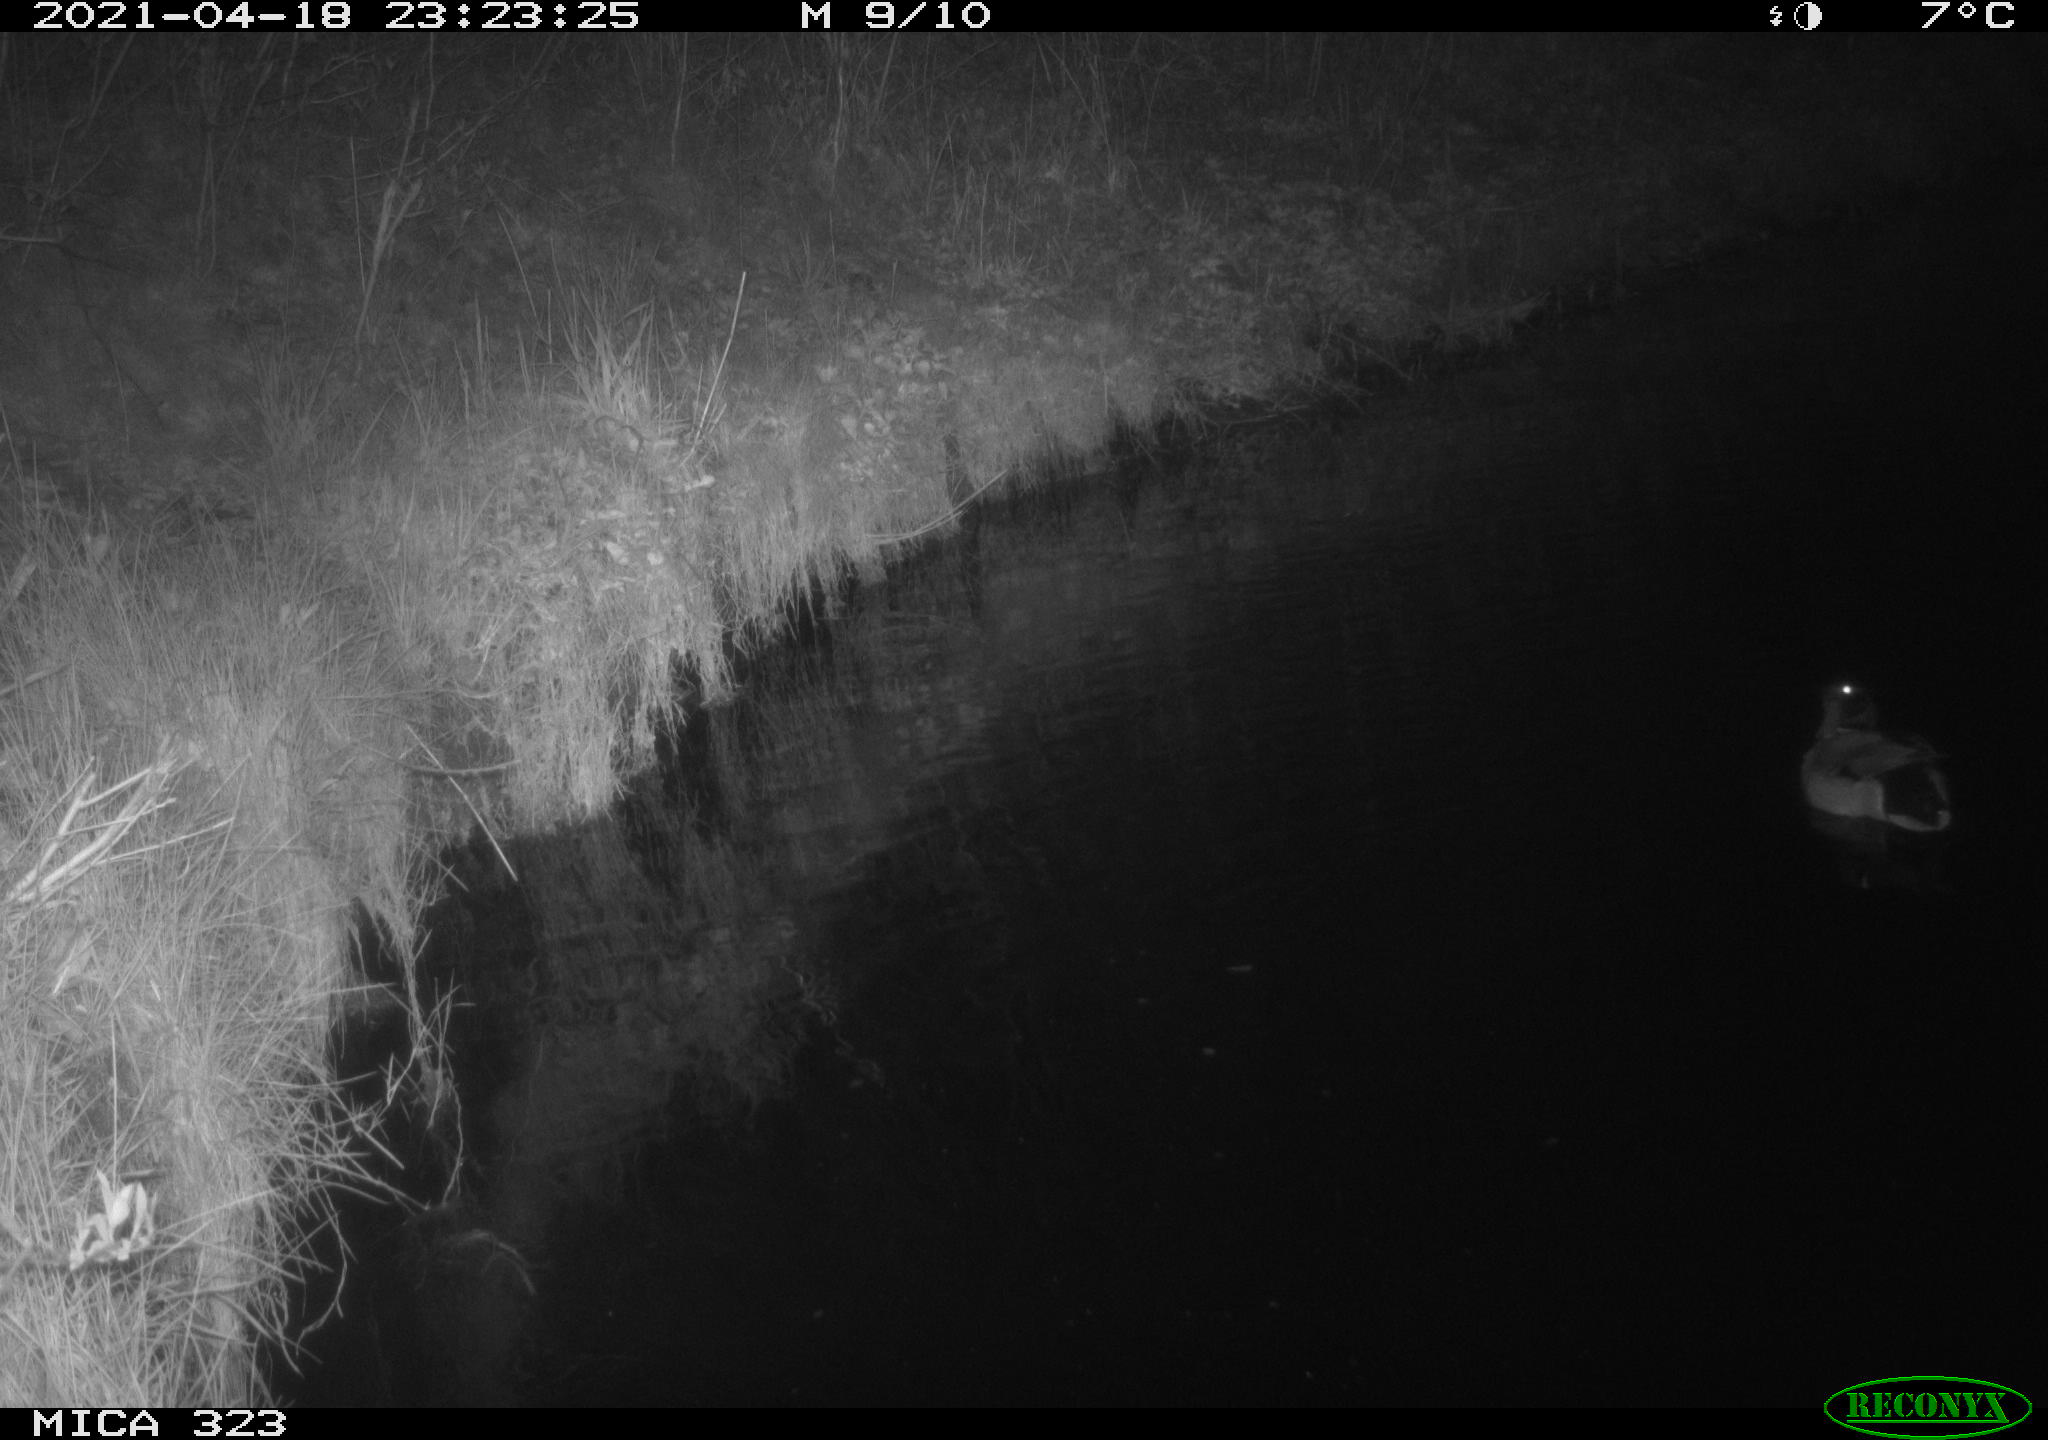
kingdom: Animalia
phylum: Chordata
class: Aves
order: Anseriformes
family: Anatidae
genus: Anas
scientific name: Anas platyrhynchos
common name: Mallard
